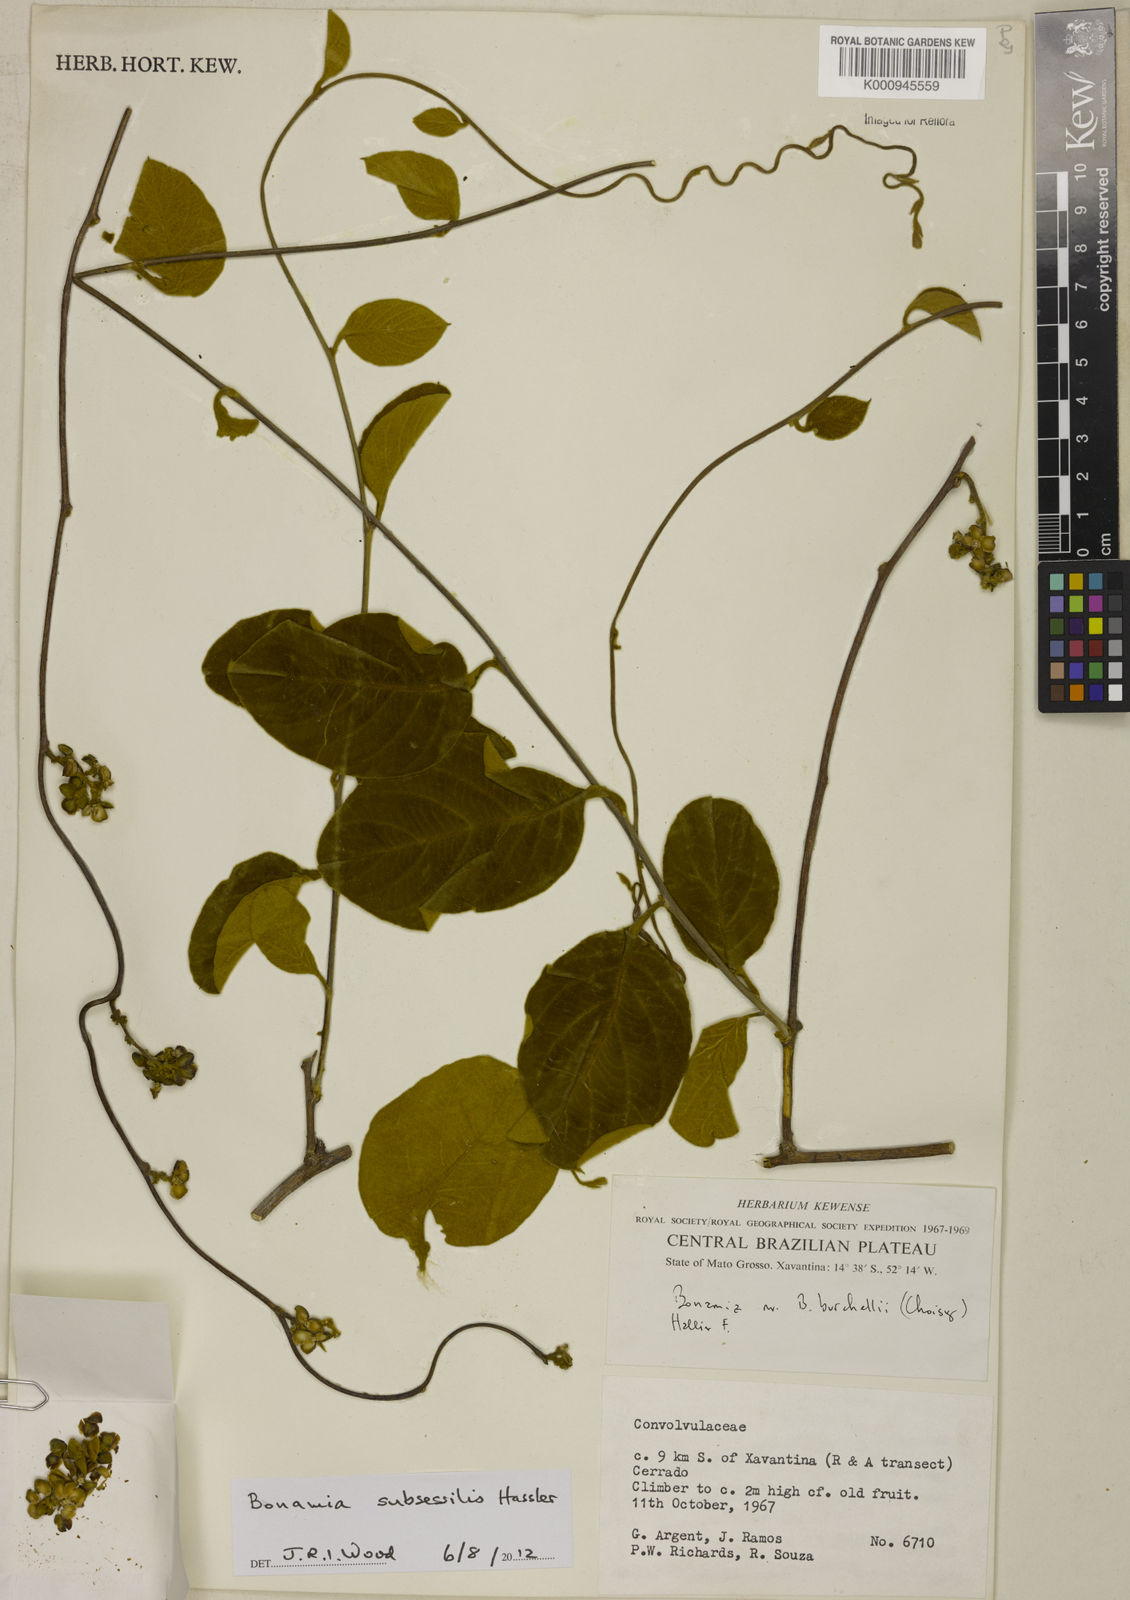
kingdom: Plantae
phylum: Tracheophyta
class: Magnoliopsida
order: Solanales
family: Convolvulaceae
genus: Bonamia
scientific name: Bonamia subsessilis
